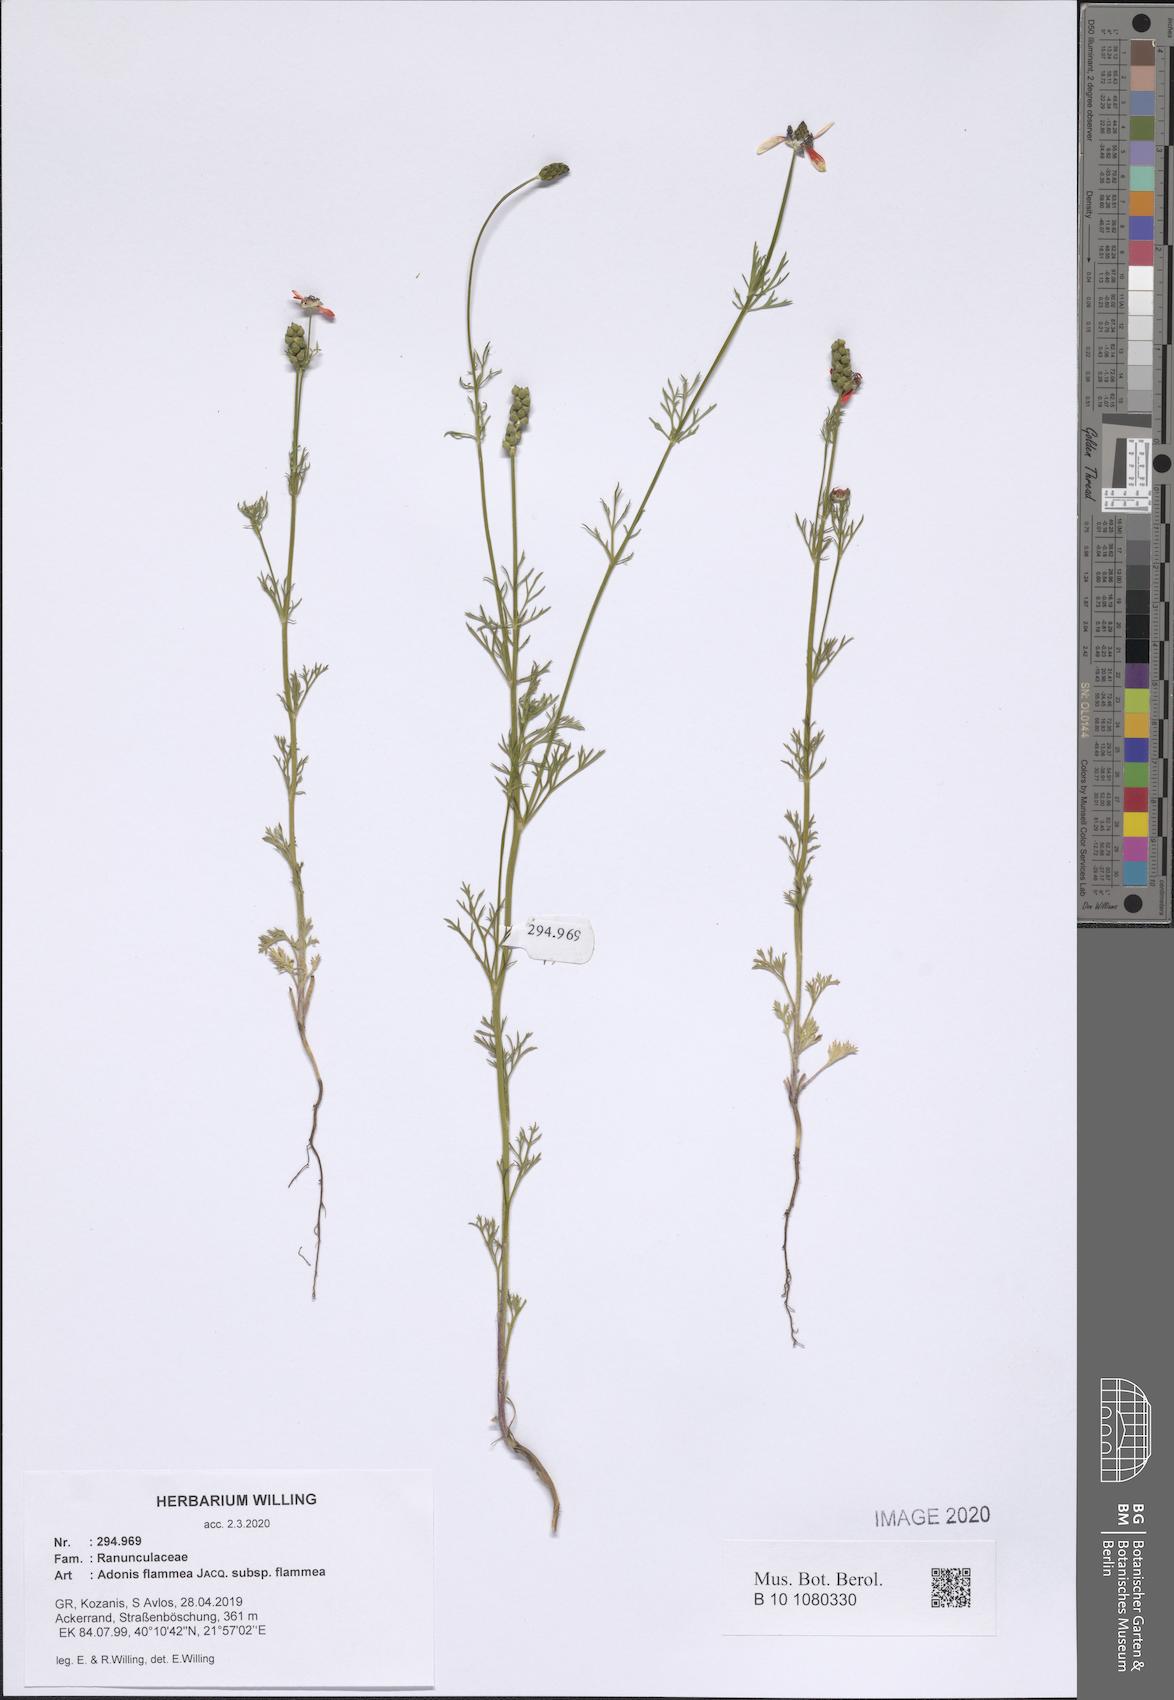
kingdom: Plantae
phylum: Tracheophyta
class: Magnoliopsida
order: Ranunculales
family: Ranunculaceae
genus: Adonis
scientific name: Adonis flammea
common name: Large pheasant's-eye
